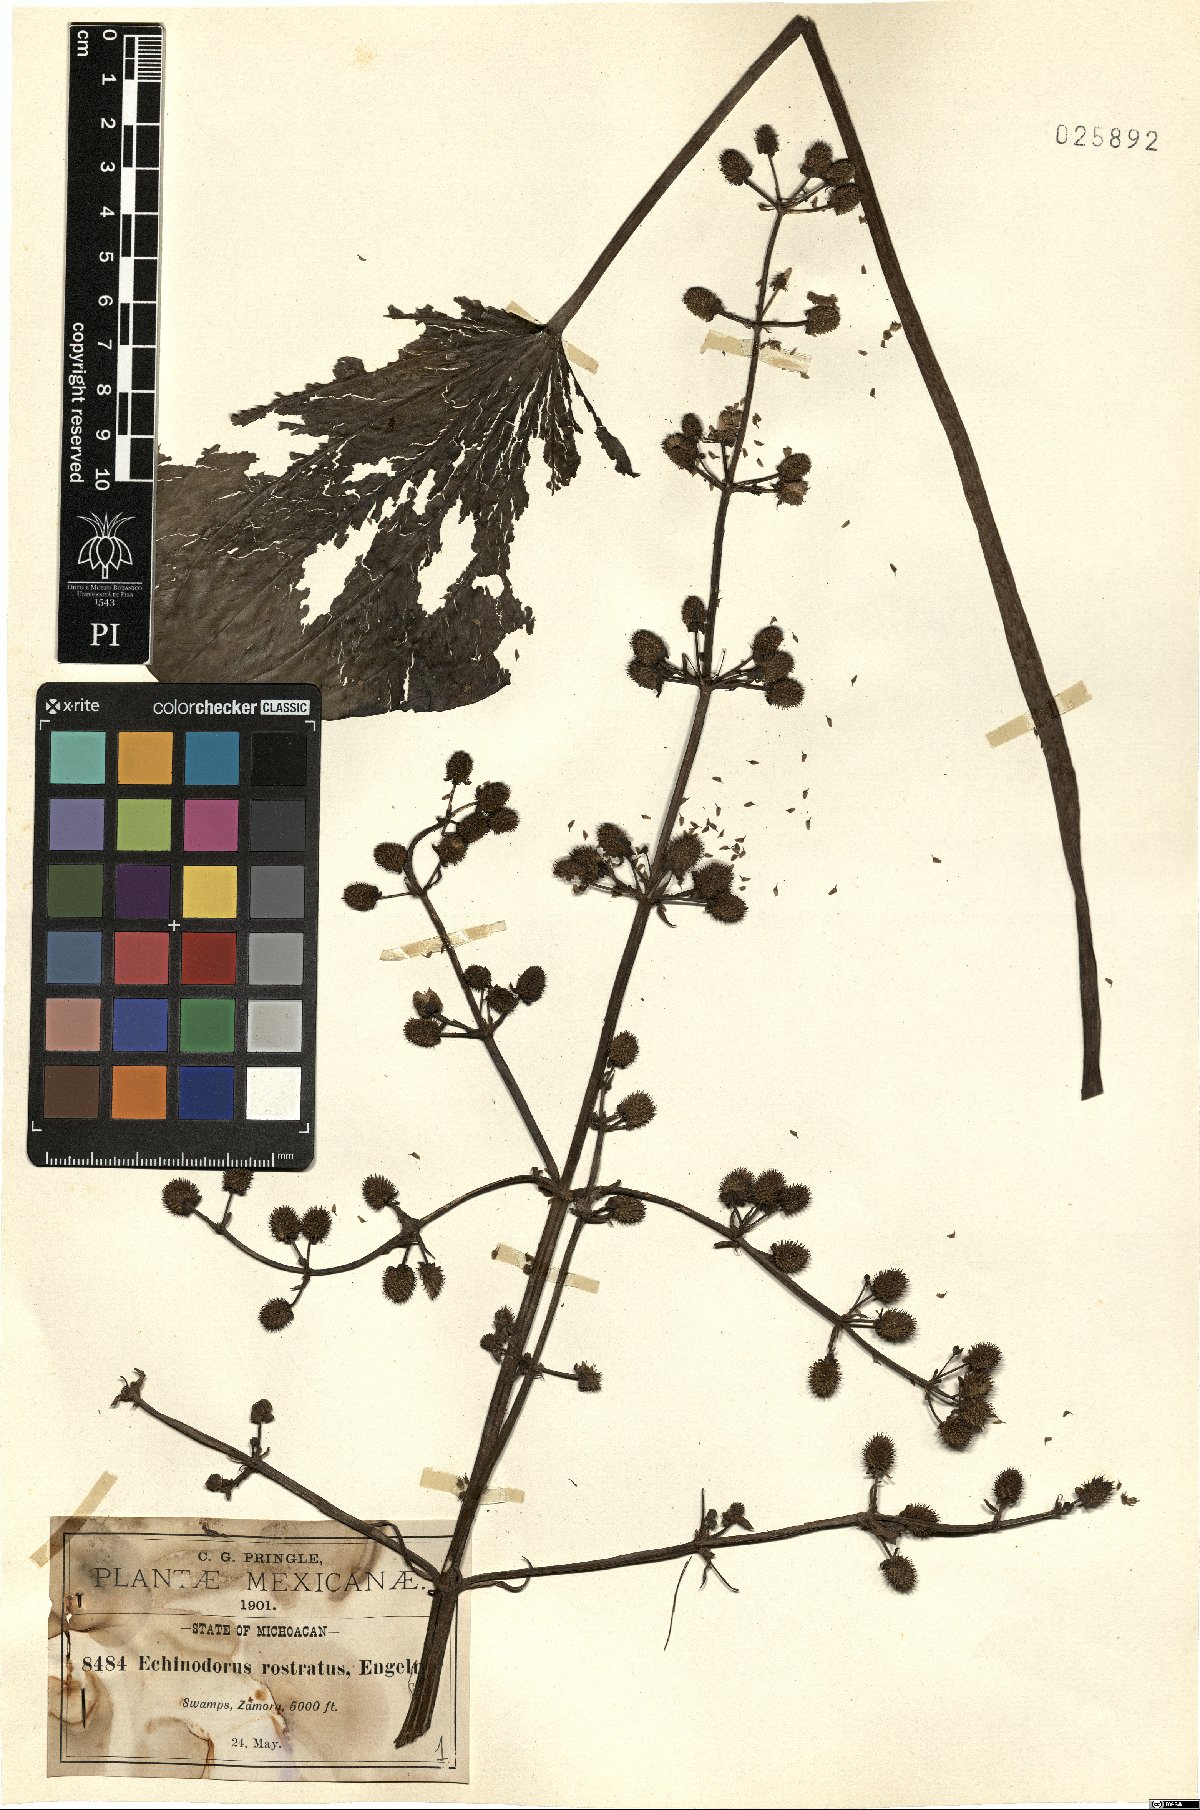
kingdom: Plantae
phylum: Tracheophyta
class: Liliopsida
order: Alismatales
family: Alismataceae
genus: Echinodorus
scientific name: Echinodorus berteroi
